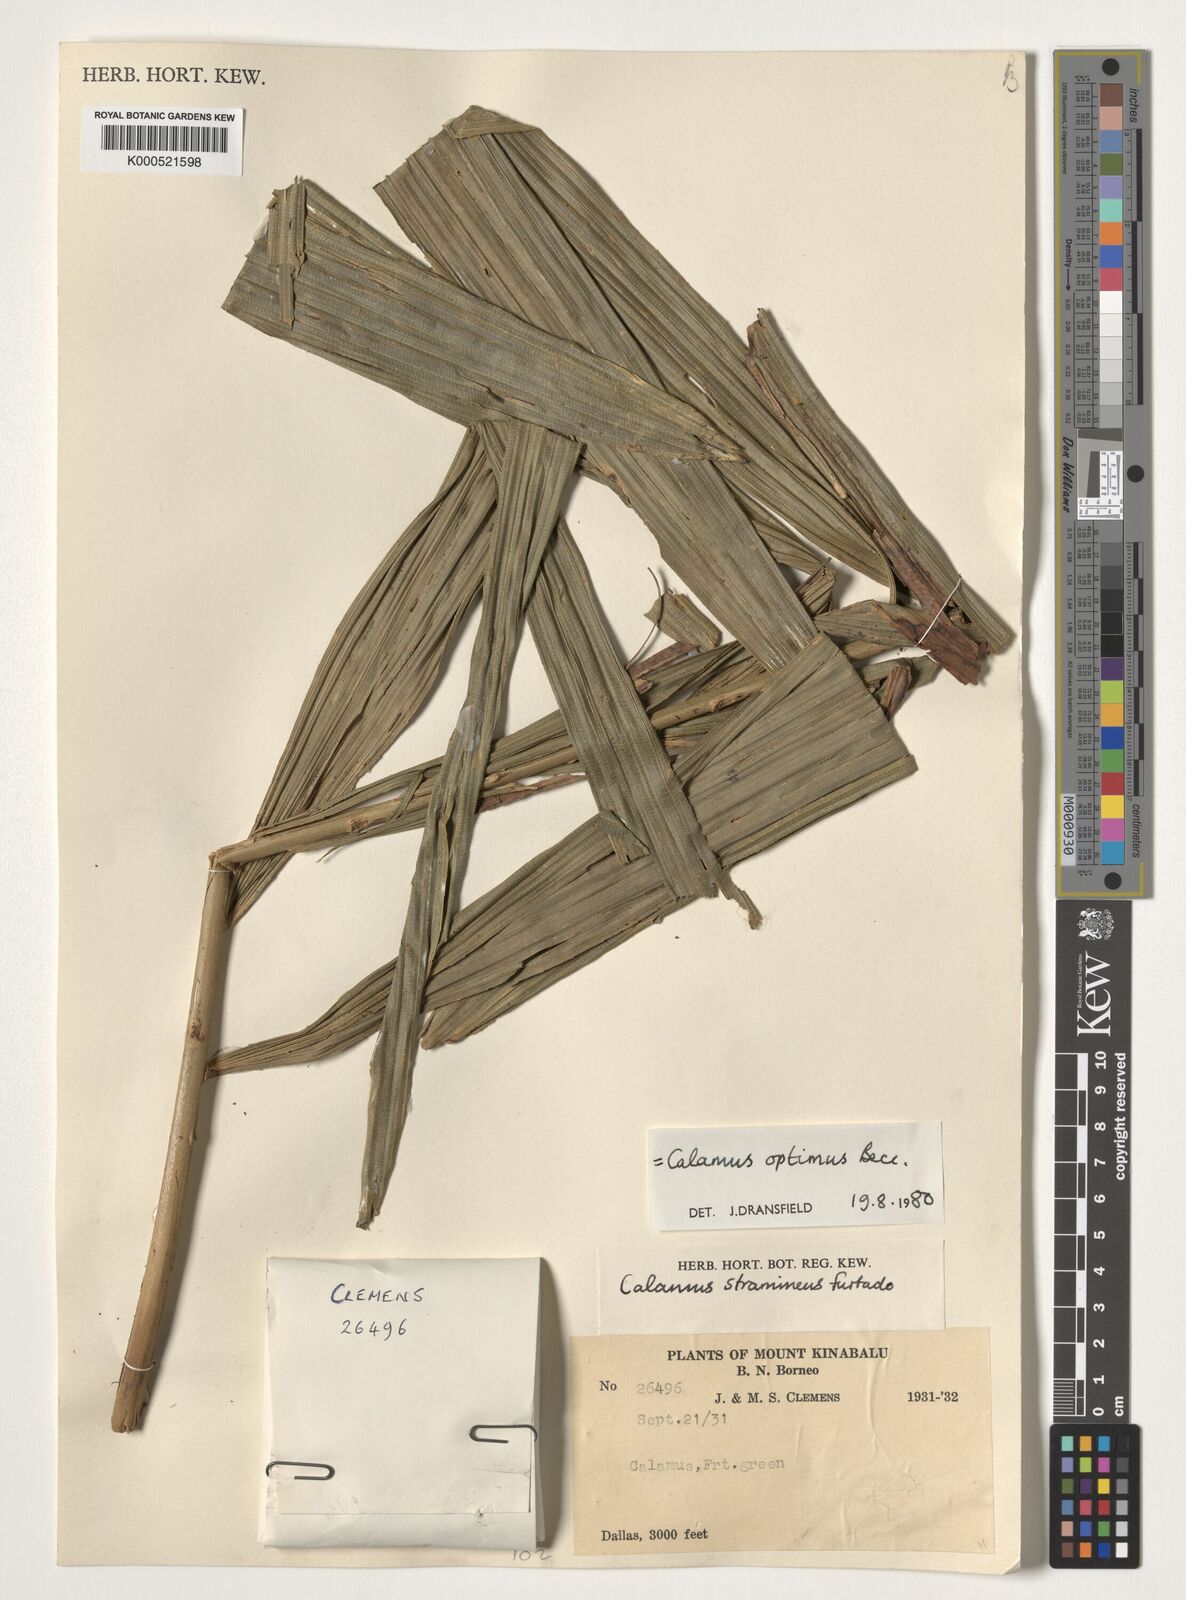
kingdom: Plantae
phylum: Tracheophyta
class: Liliopsida
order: Arecales
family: Arecaceae
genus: Calamus
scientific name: Calamus
